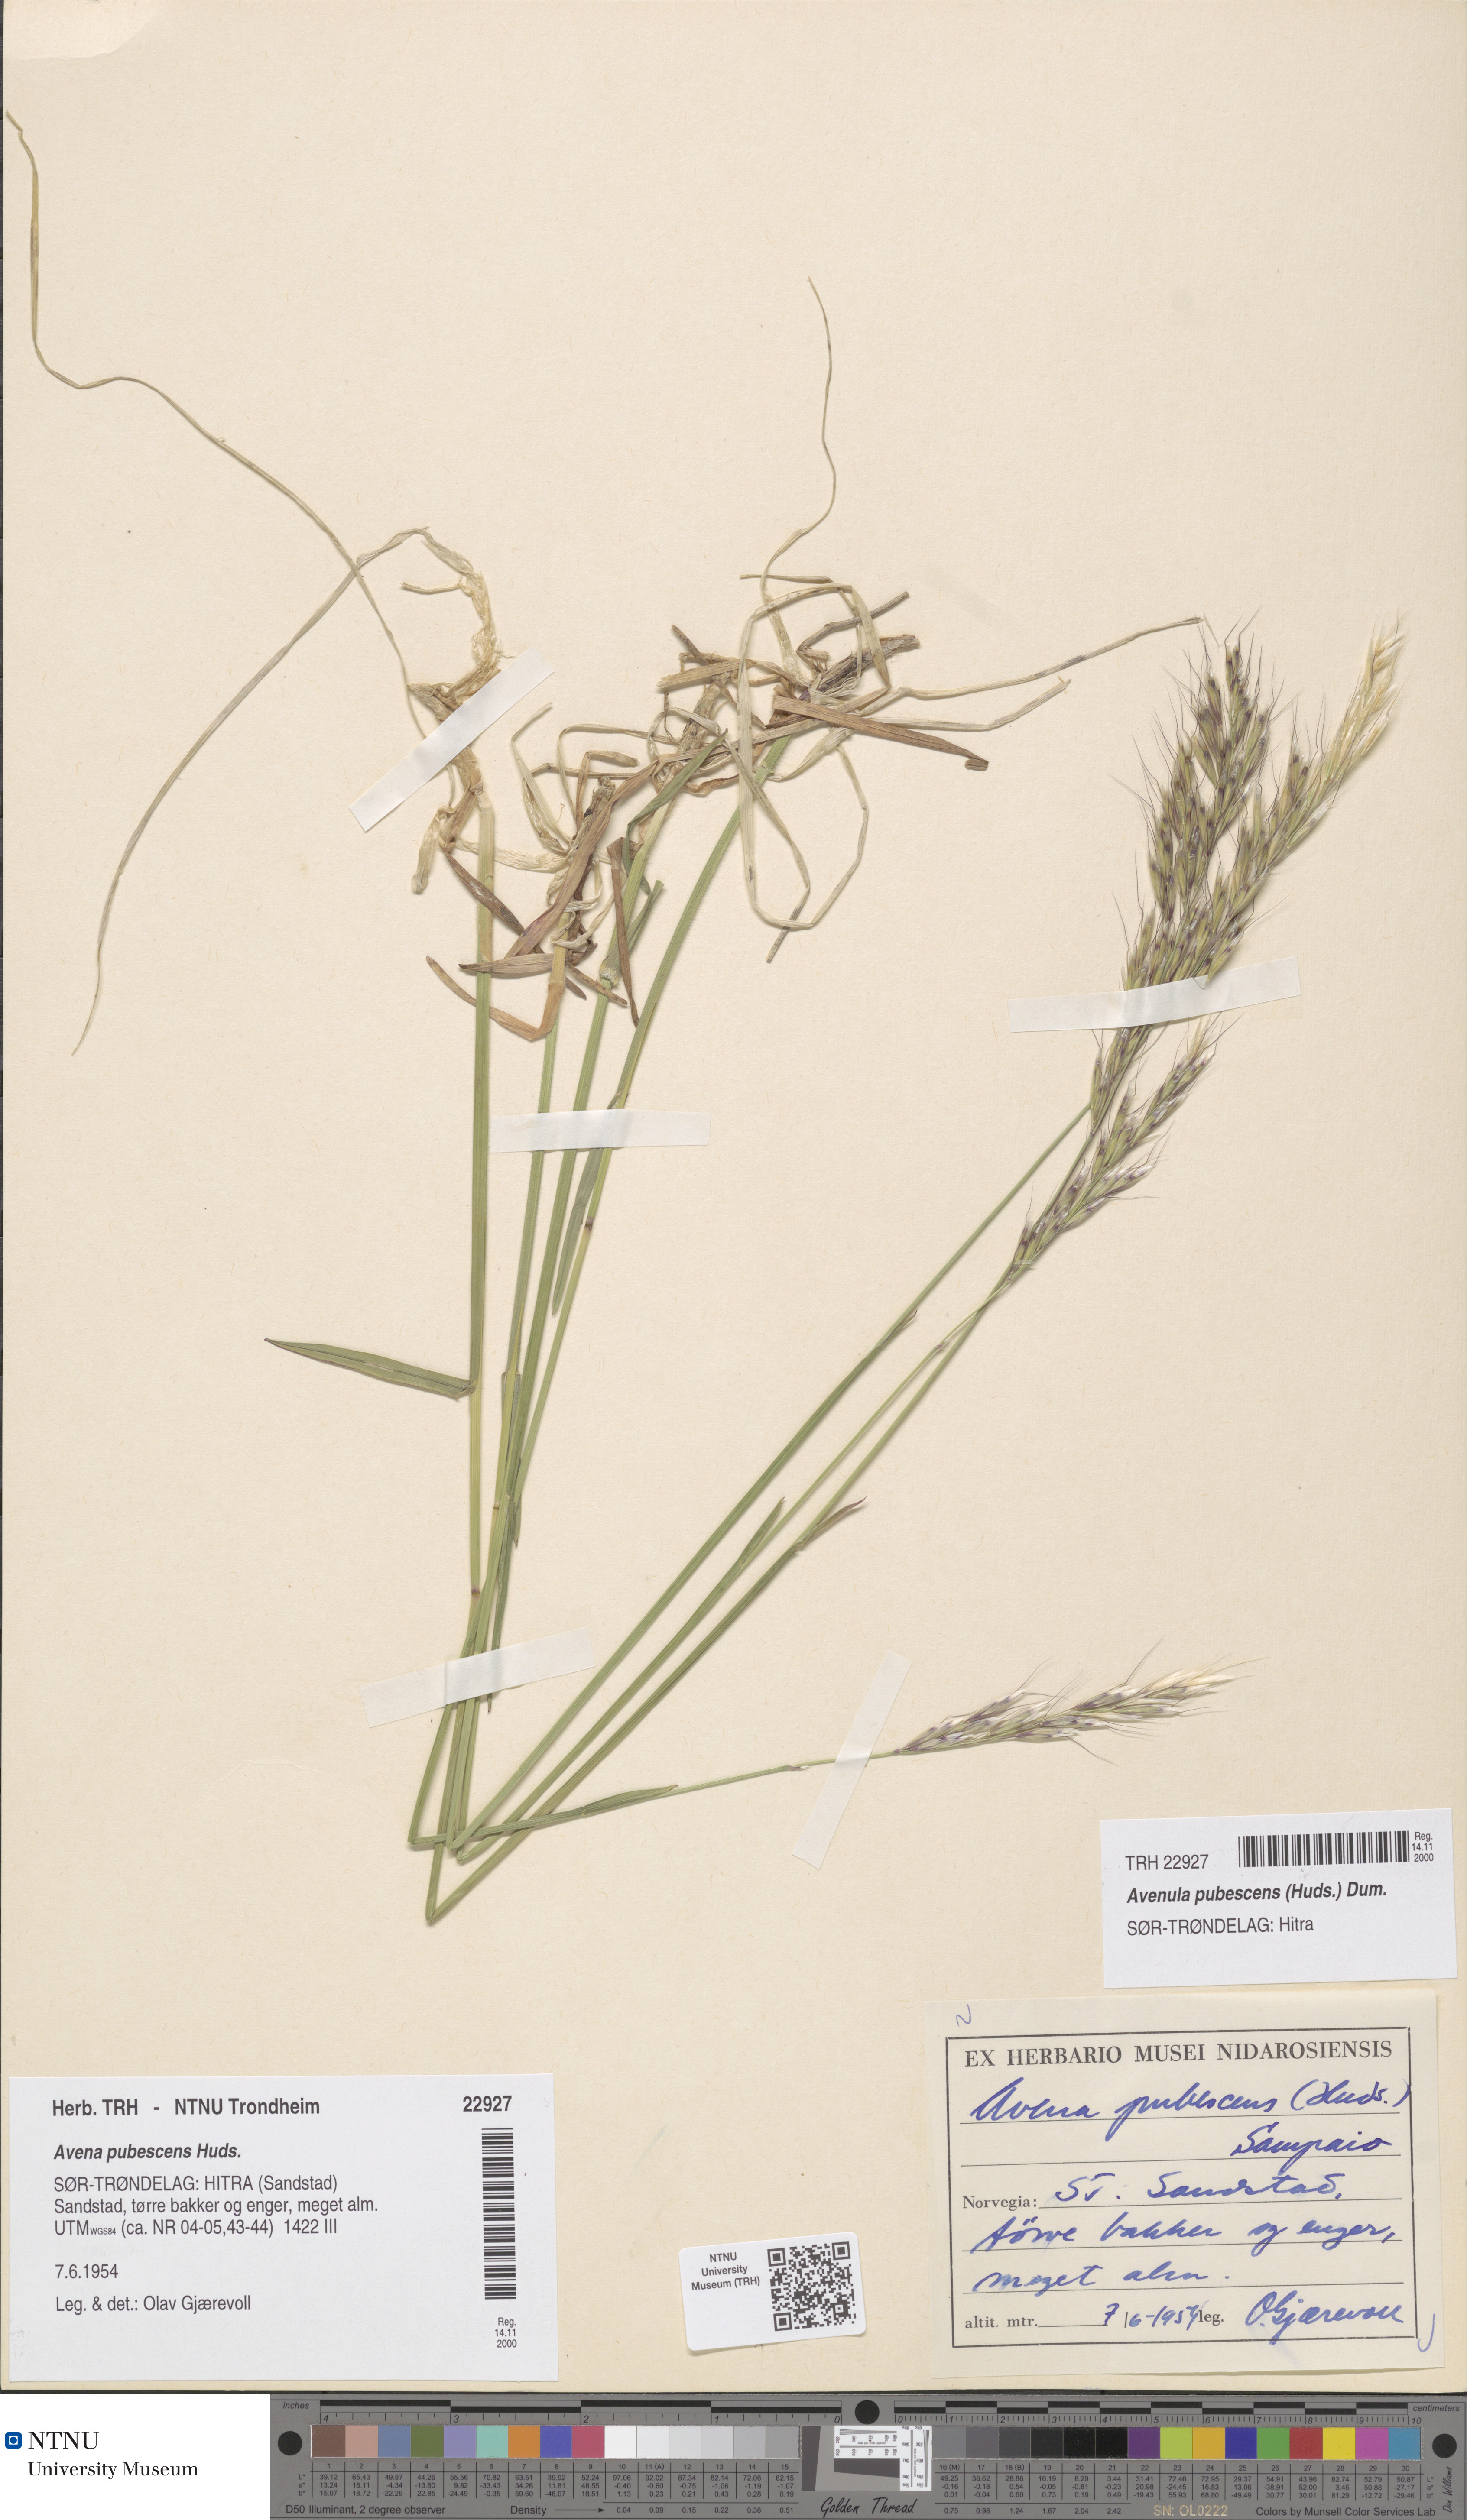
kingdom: Plantae
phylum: Tracheophyta
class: Liliopsida
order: Poales
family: Poaceae
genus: Avenula
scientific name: Avenula pubescens
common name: Downy alpine oatgrass
